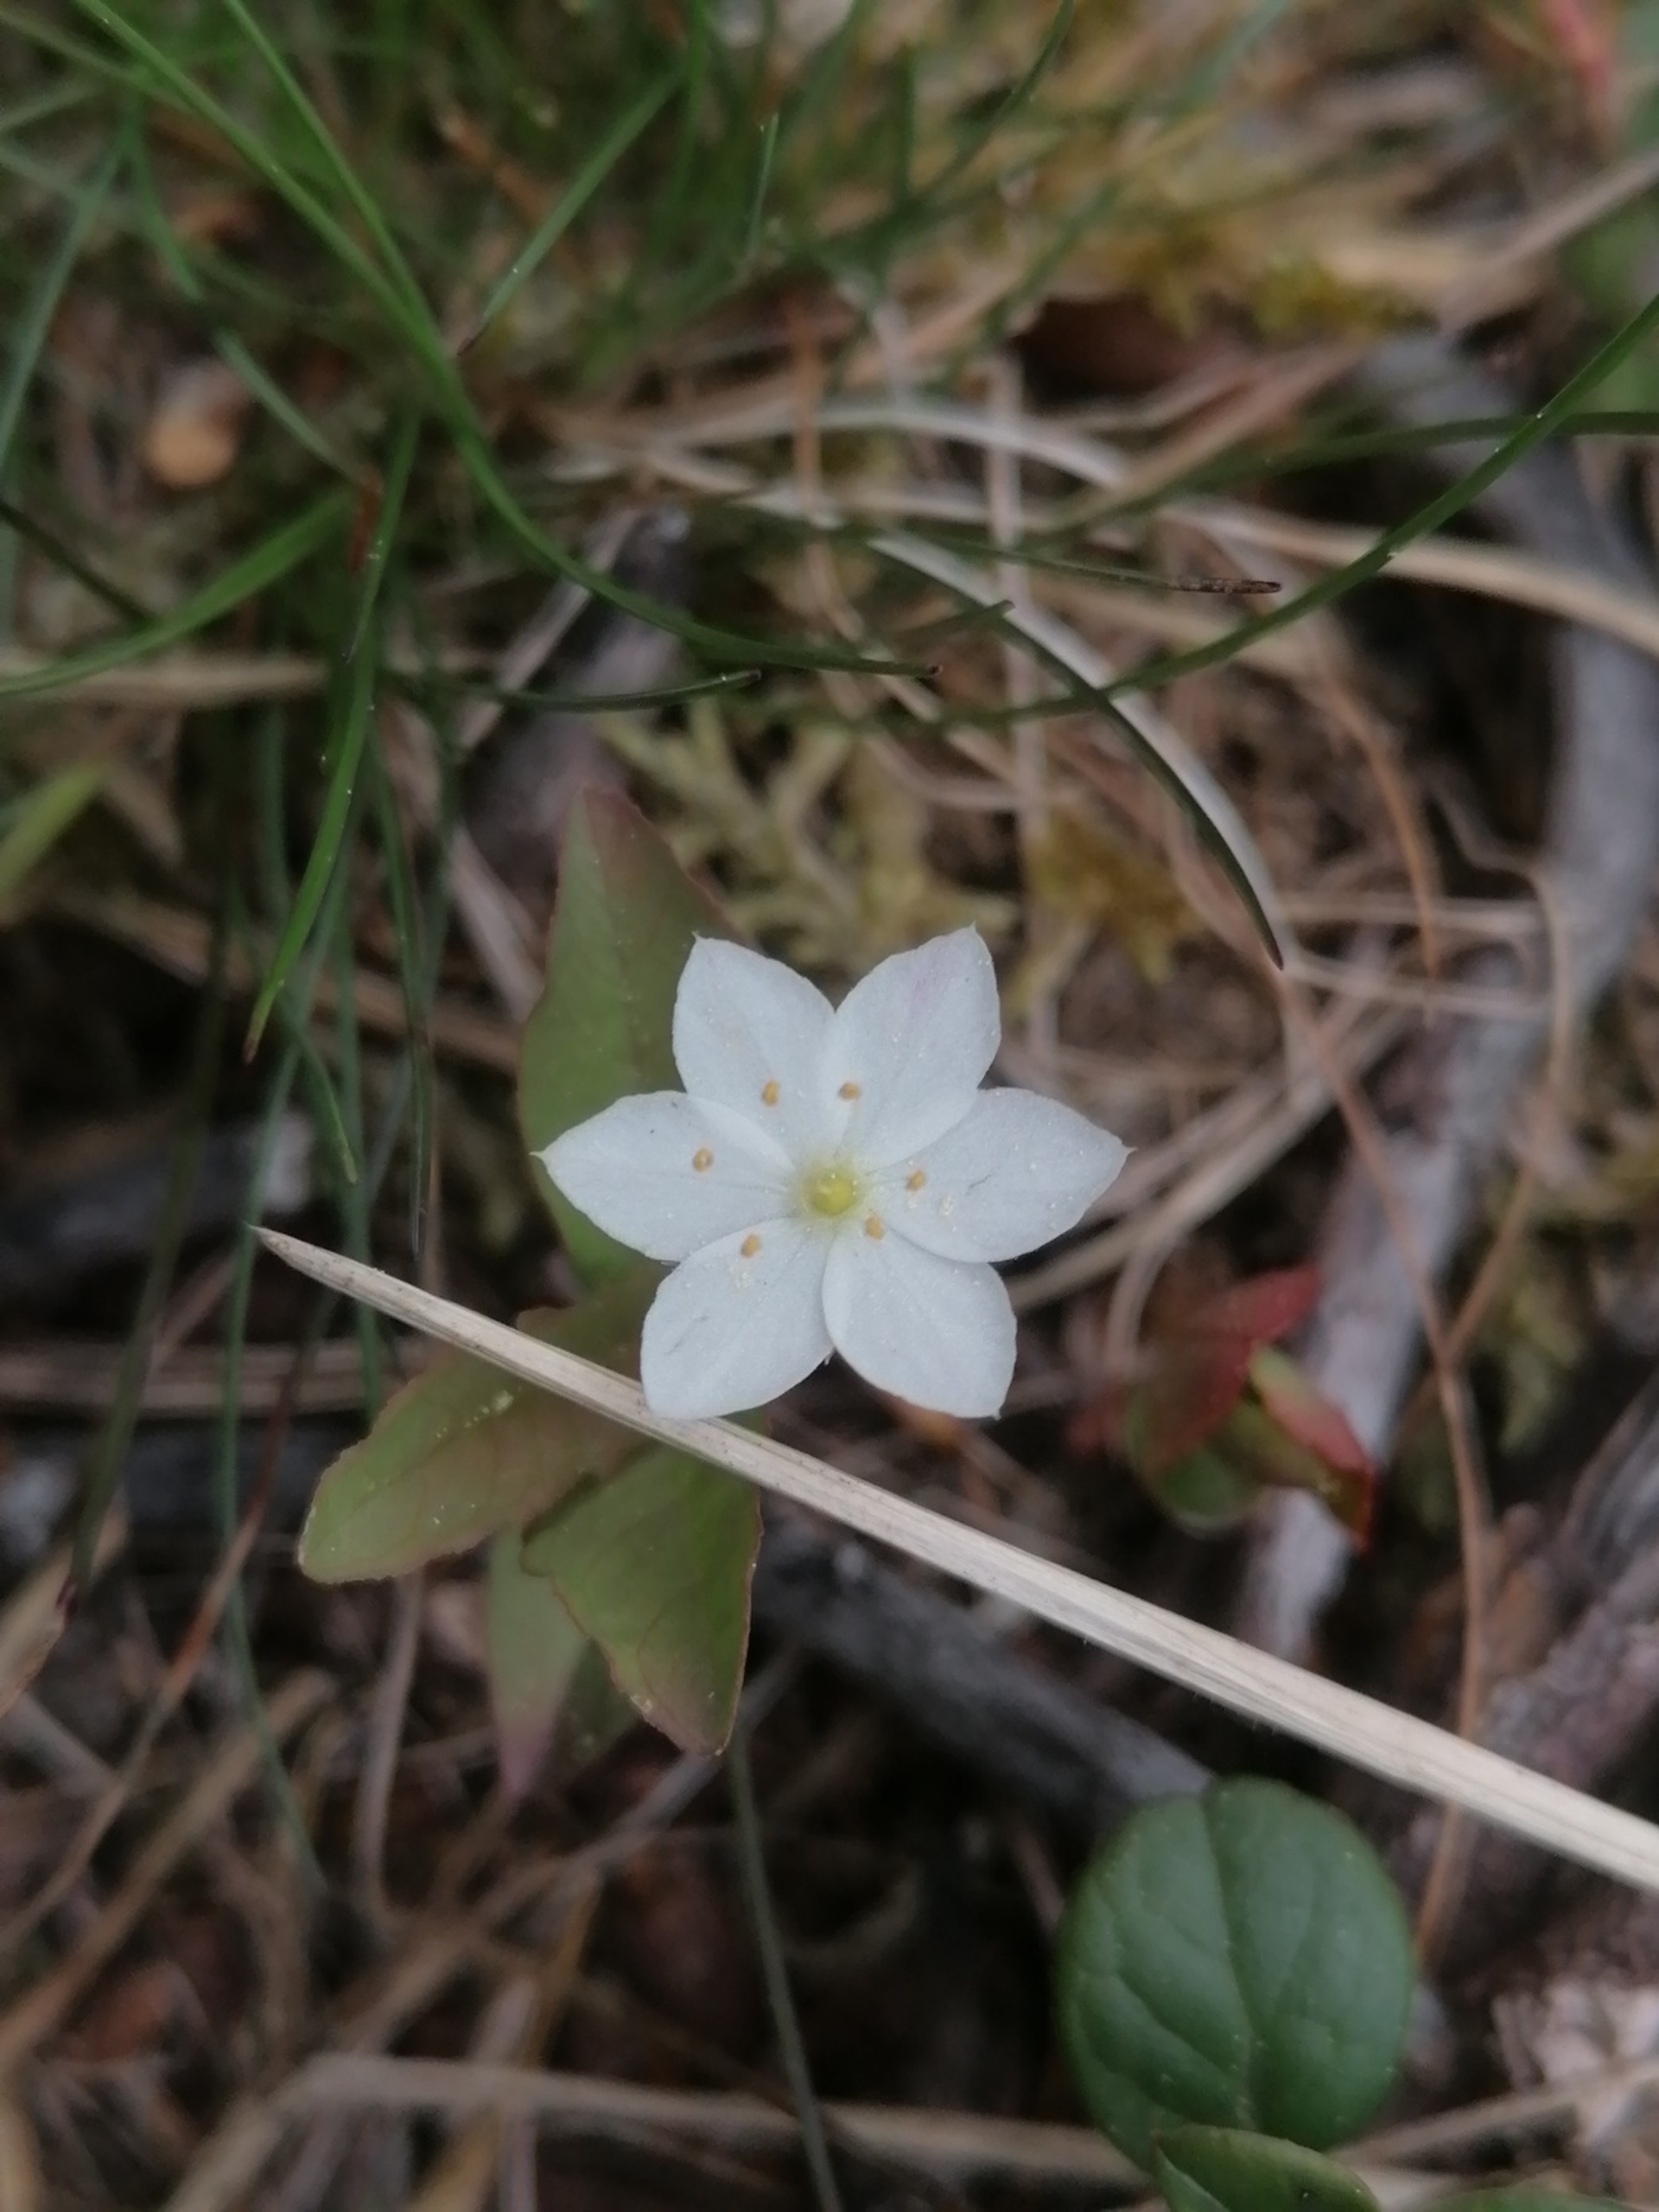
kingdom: Plantae
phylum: Tracheophyta
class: Magnoliopsida
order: Ericales
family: Primulaceae
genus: Lysimachia
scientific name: Lysimachia europaea
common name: Skovstjerne
